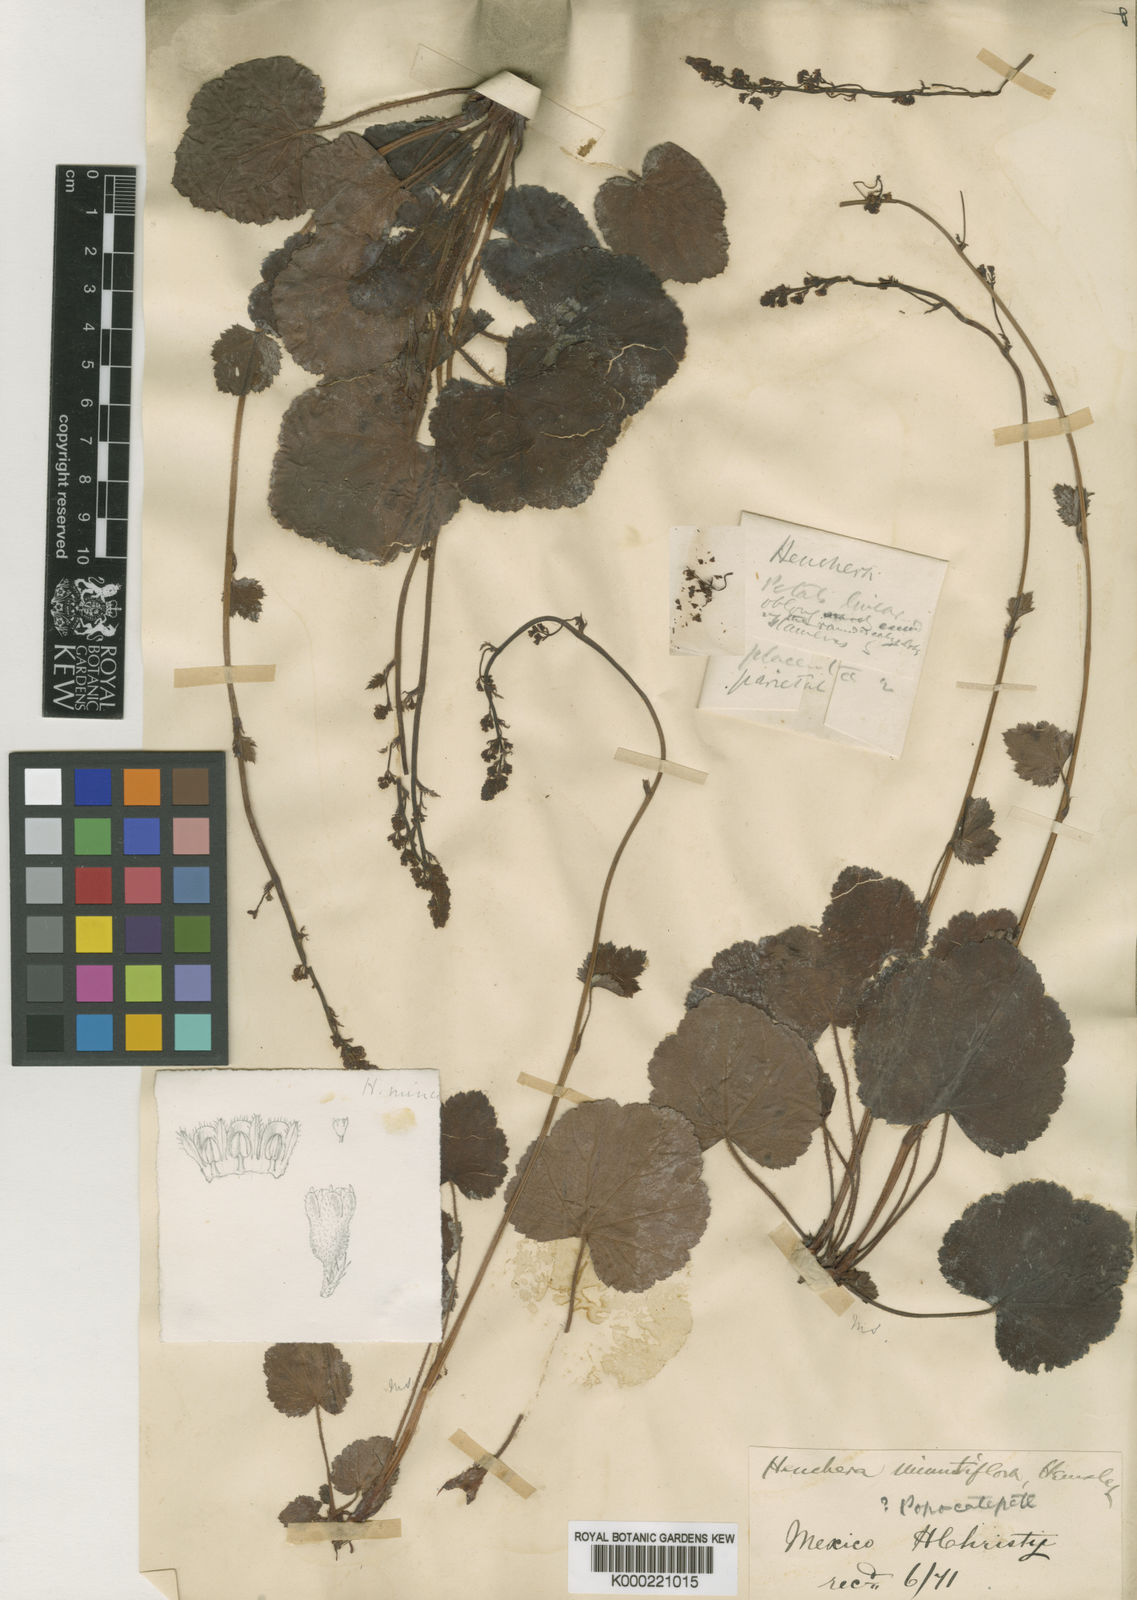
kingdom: Plantae
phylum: Tracheophyta
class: Magnoliopsida
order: Saxifragales
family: Saxifragaceae
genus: Heuchera
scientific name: Heuchera longipetala
